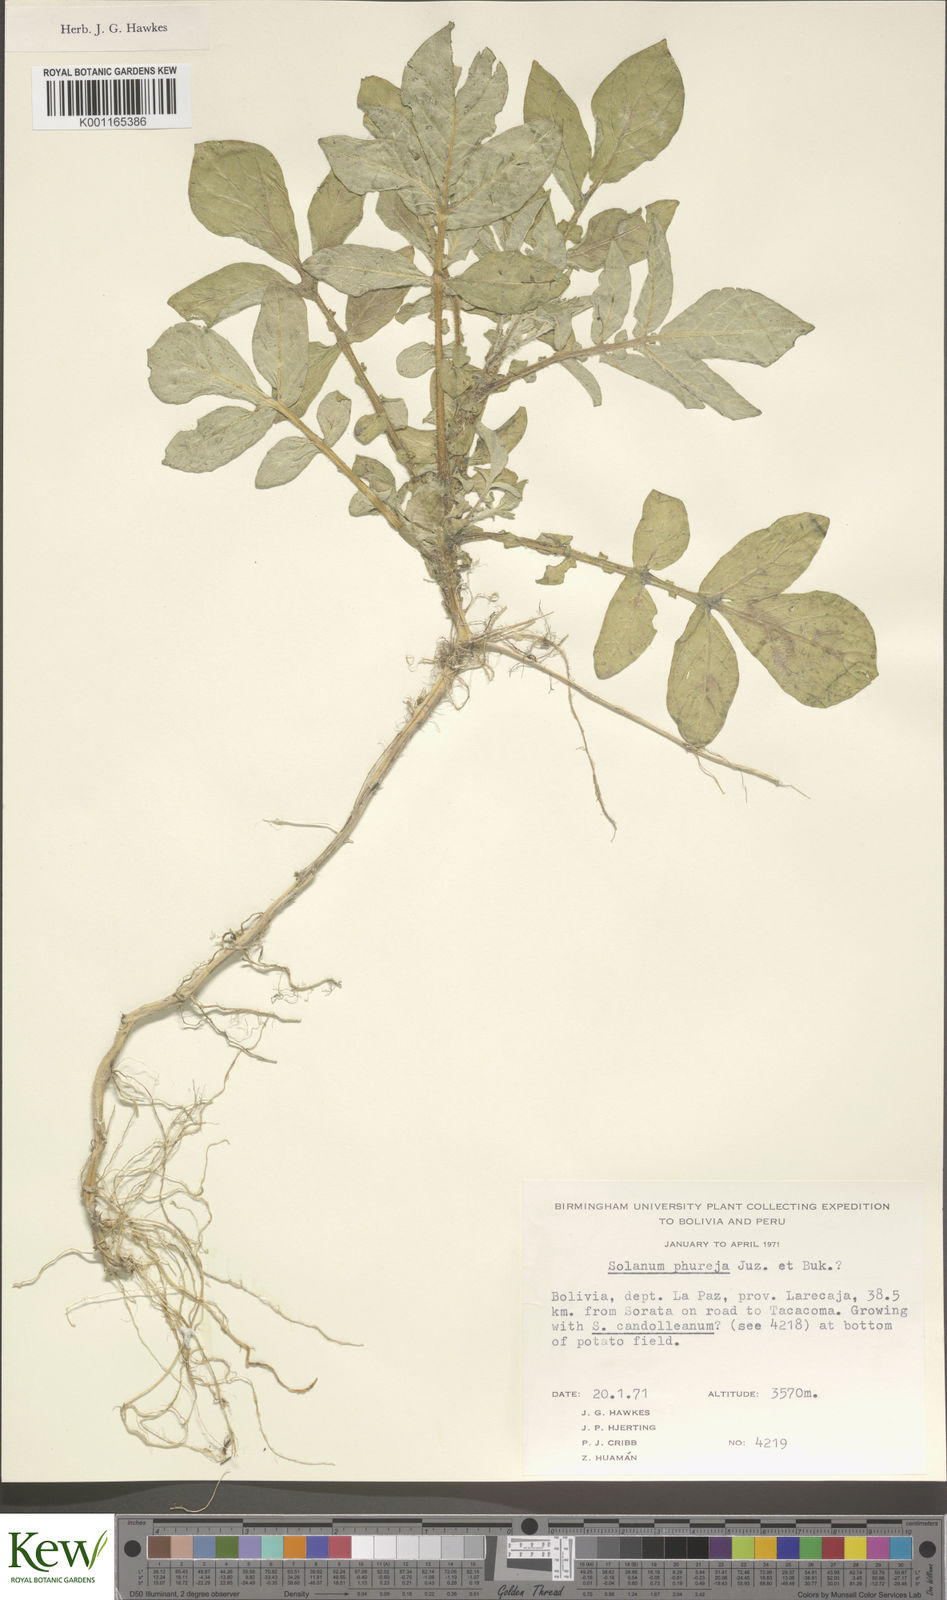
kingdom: Plantae
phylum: Tracheophyta
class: Magnoliopsida
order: Solanales
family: Solanaceae
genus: Solanum
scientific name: Solanum tuberosum
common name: Potato
